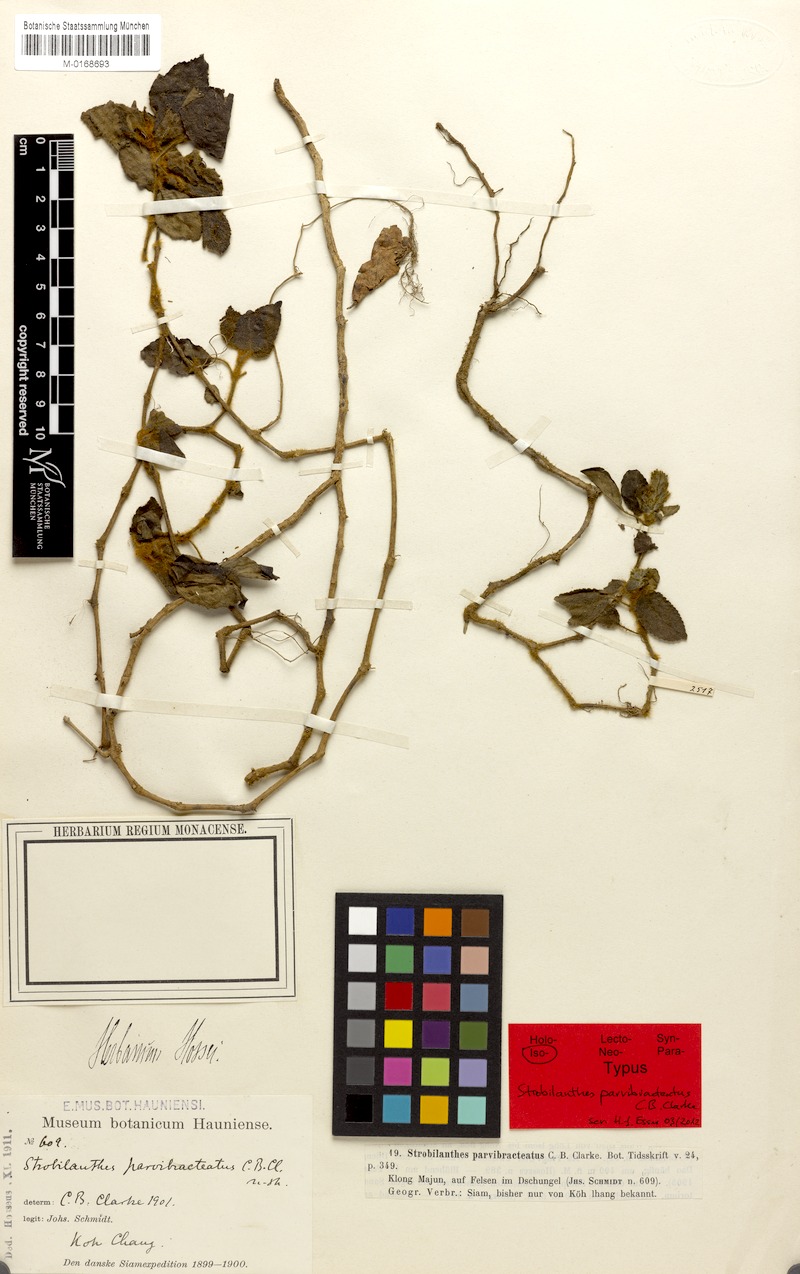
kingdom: Plantae
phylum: Tracheophyta
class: Magnoliopsida
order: Lamiales
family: Acanthaceae
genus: Strobilanthes
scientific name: Strobilanthes rufescens
